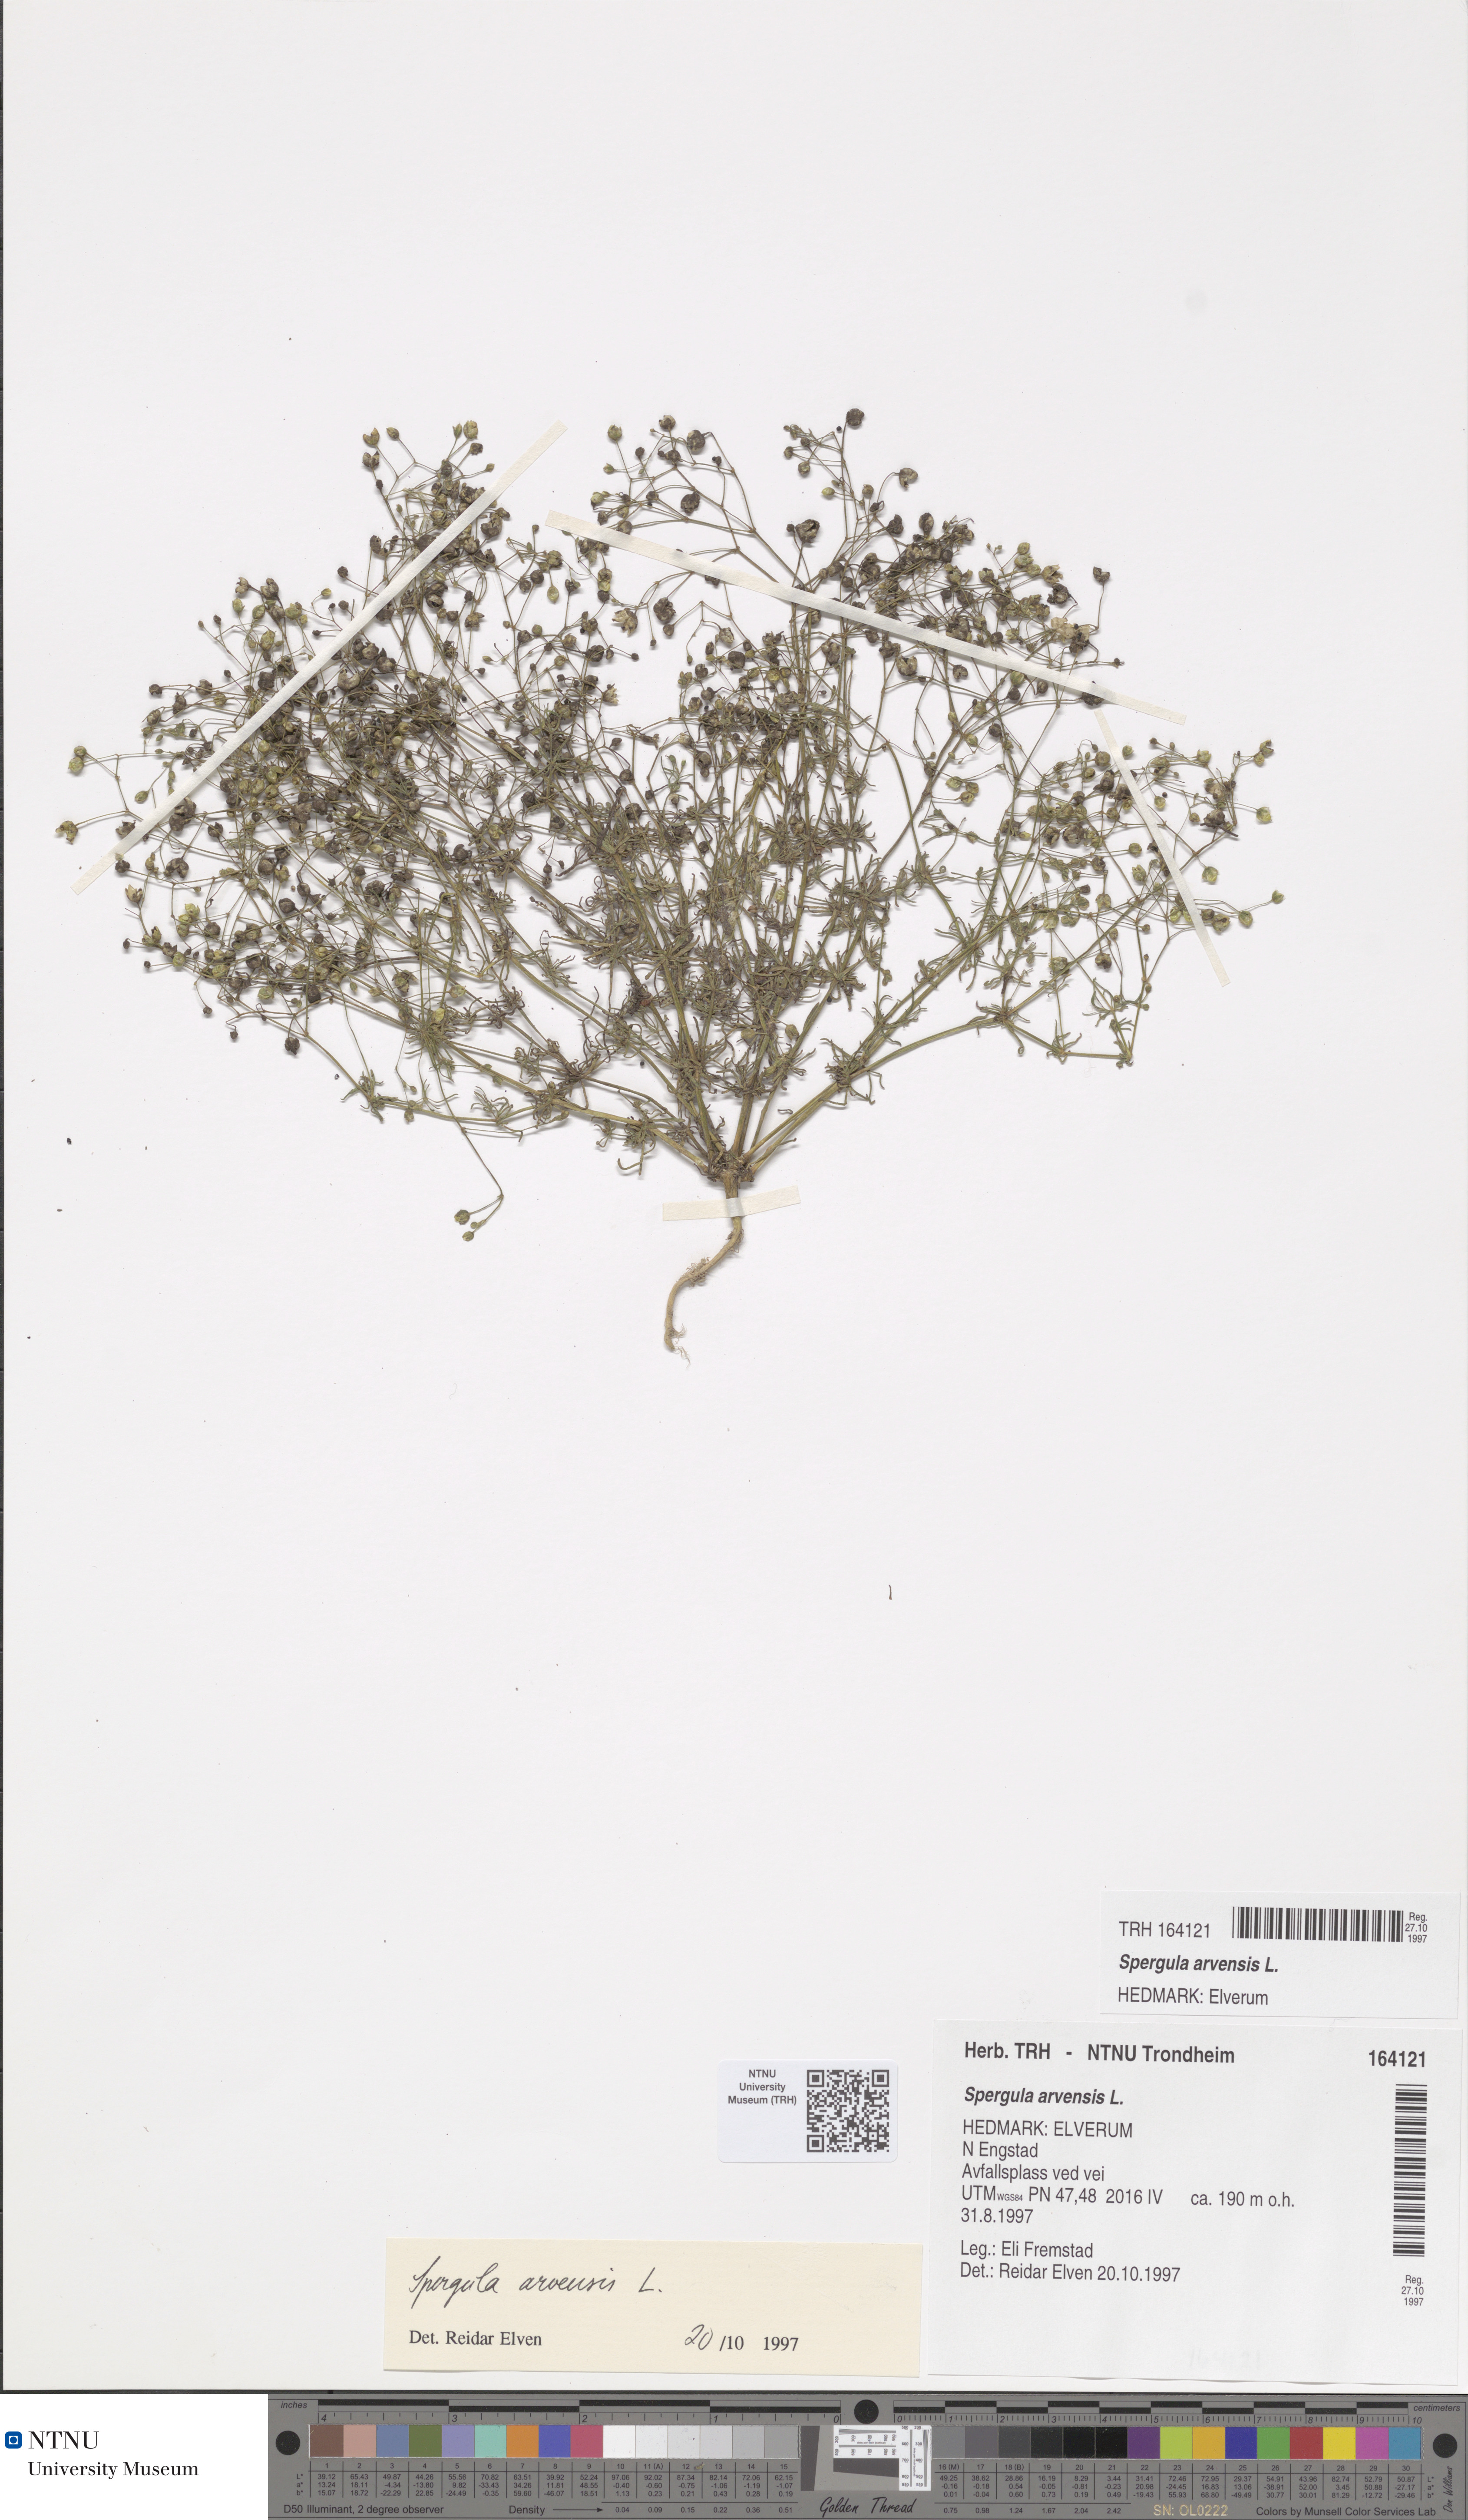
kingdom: Plantae
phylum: Tracheophyta
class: Magnoliopsida
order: Caryophyllales
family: Caryophyllaceae
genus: Spergula
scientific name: Spergula arvensis
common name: Corn spurrey
